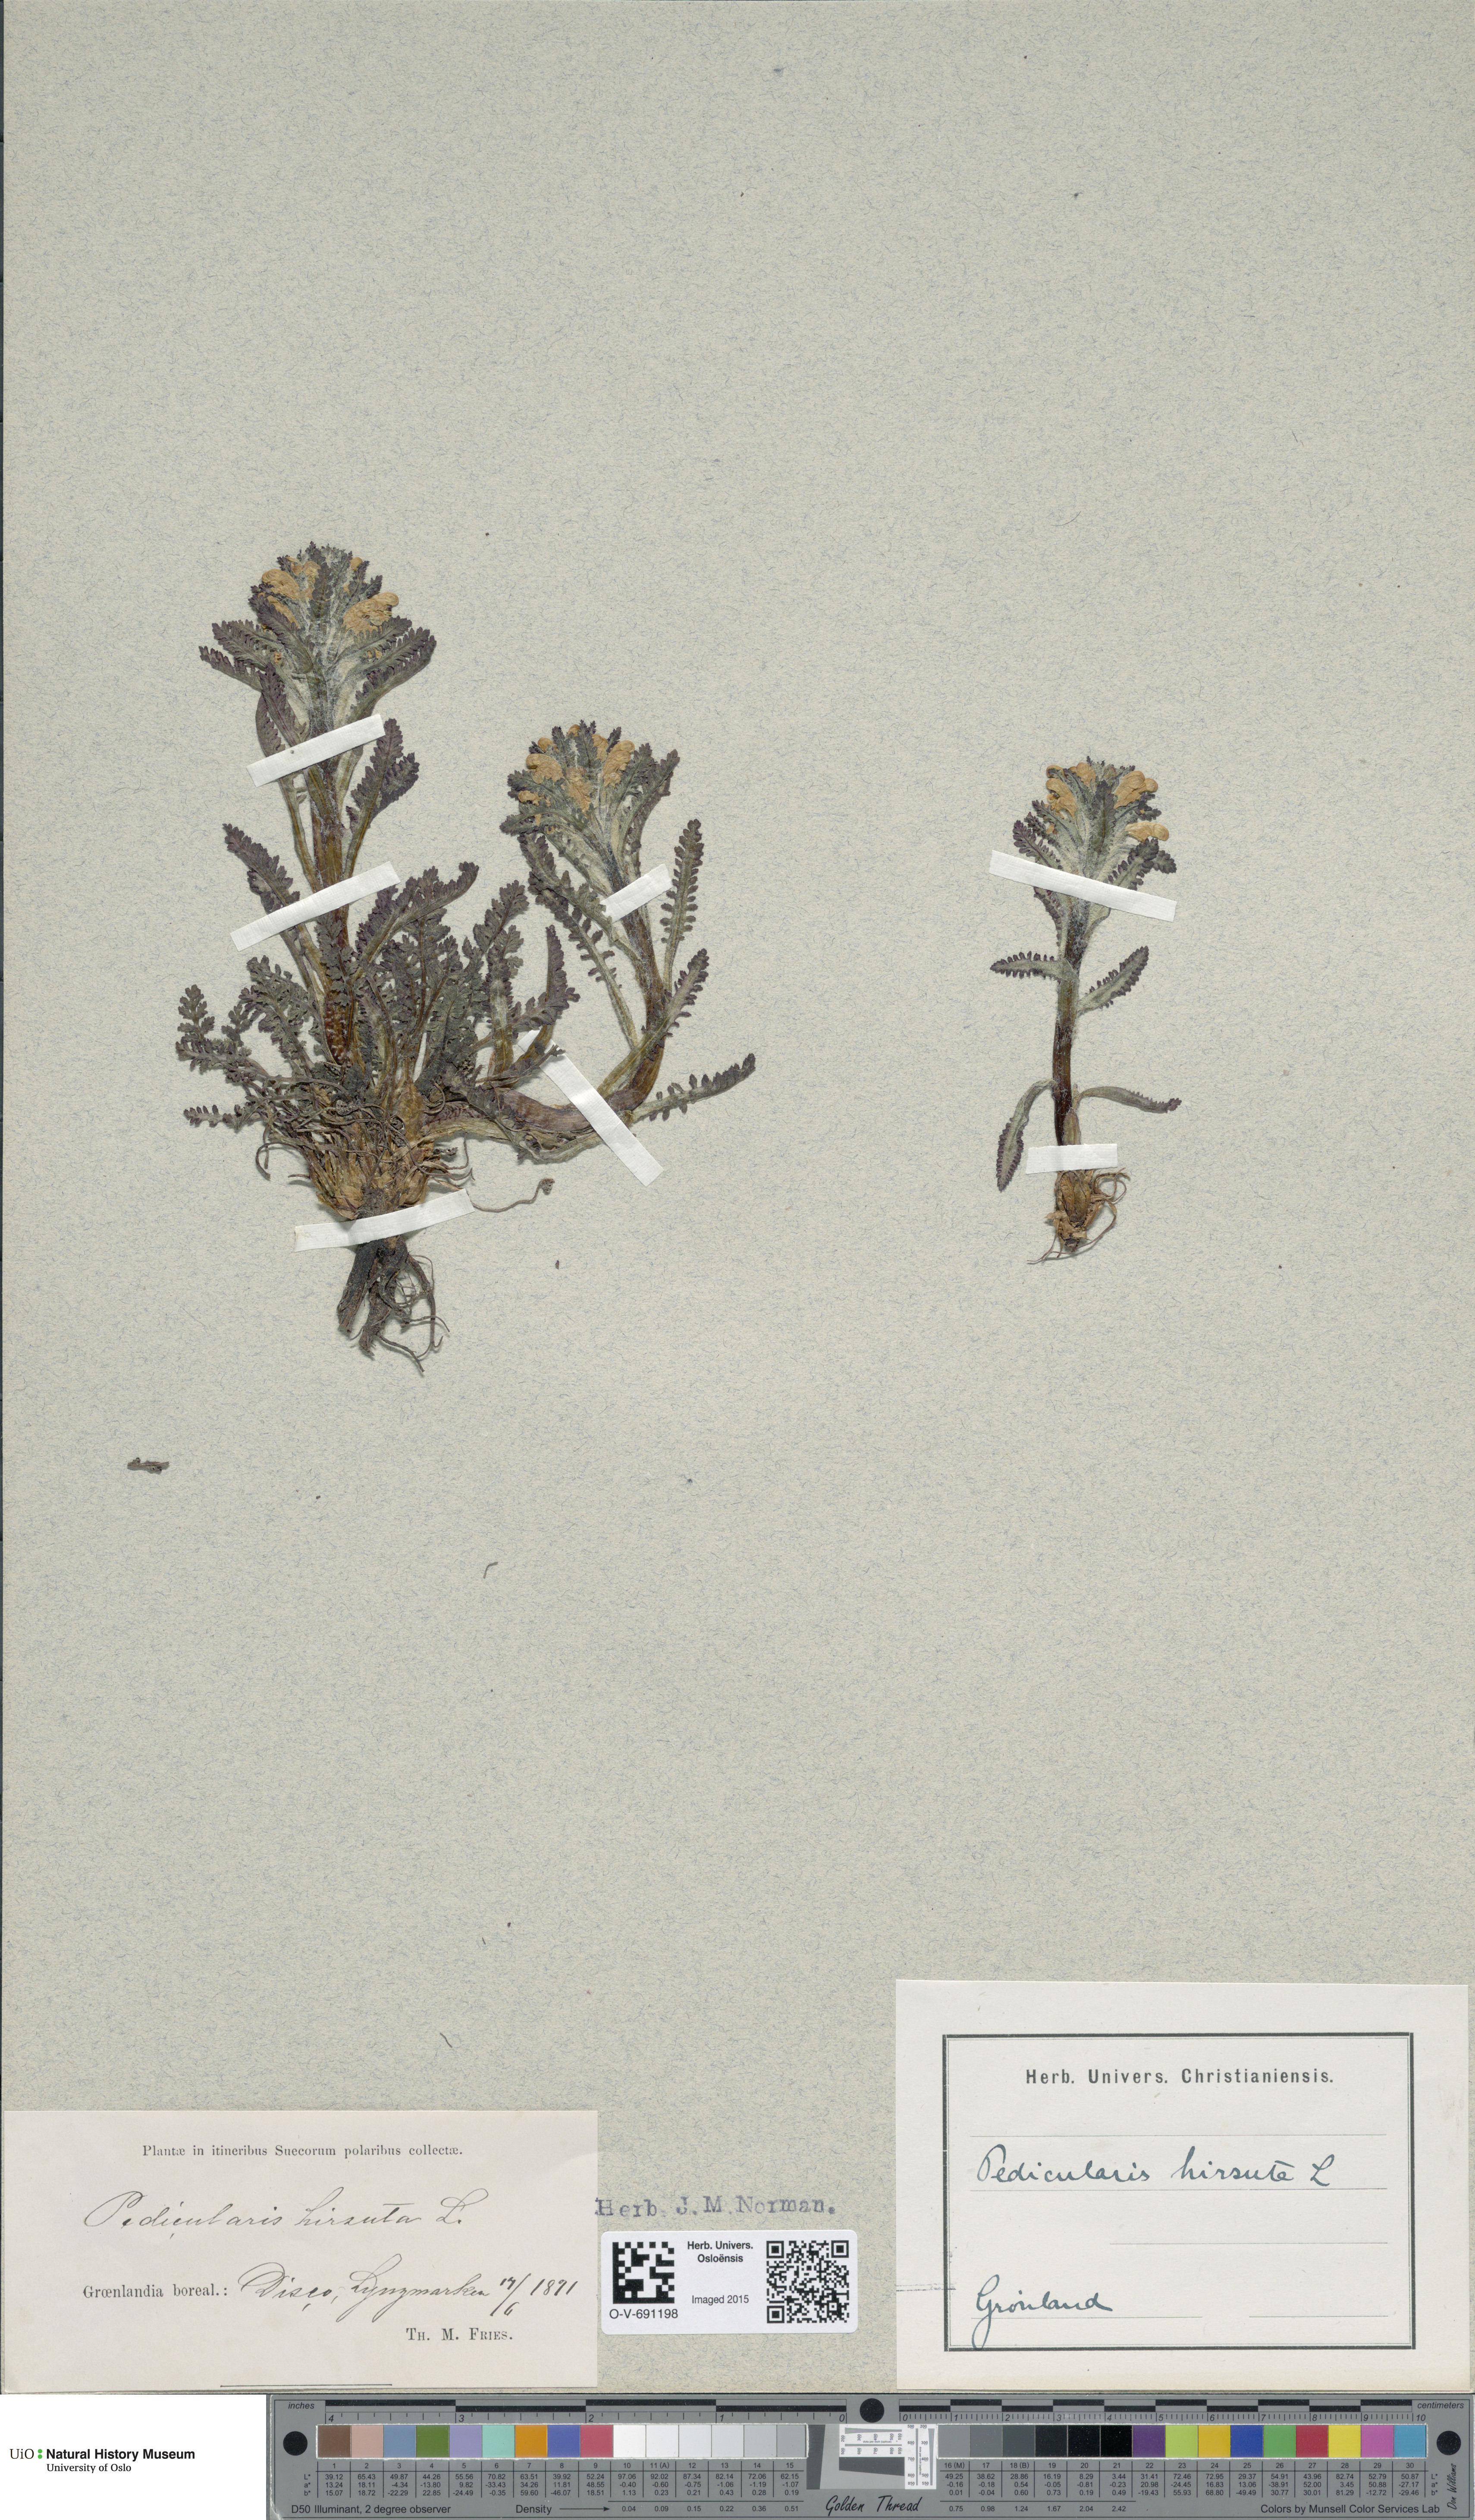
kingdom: Plantae
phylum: Tracheophyta
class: Magnoliopsida
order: Lamiales
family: Orobanchaceae
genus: Pedicularis
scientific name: Pedicularis hirsuta
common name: Hairy lousewort
